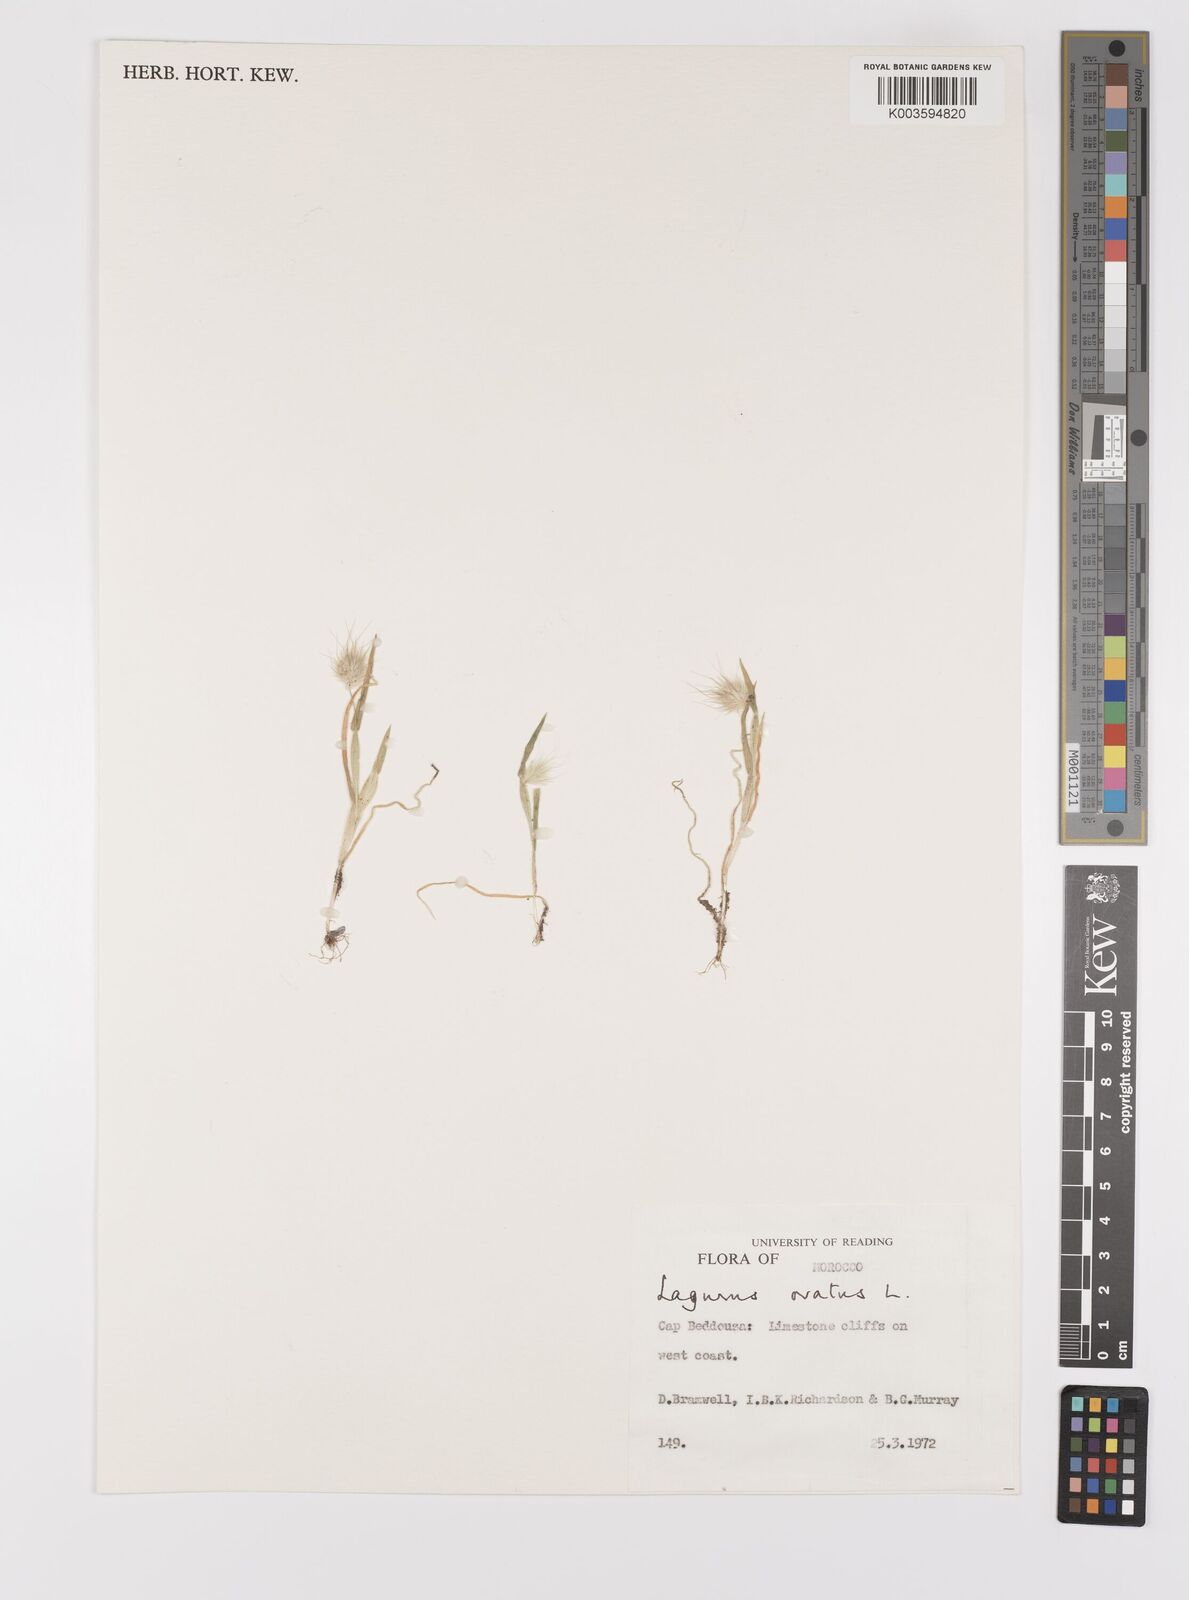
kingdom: Plantae
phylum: Tracheophyta
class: Liliopsida
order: Poales
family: Poaceae
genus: Lagurus
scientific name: Lagurus ovatus
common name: Hare's-tail
